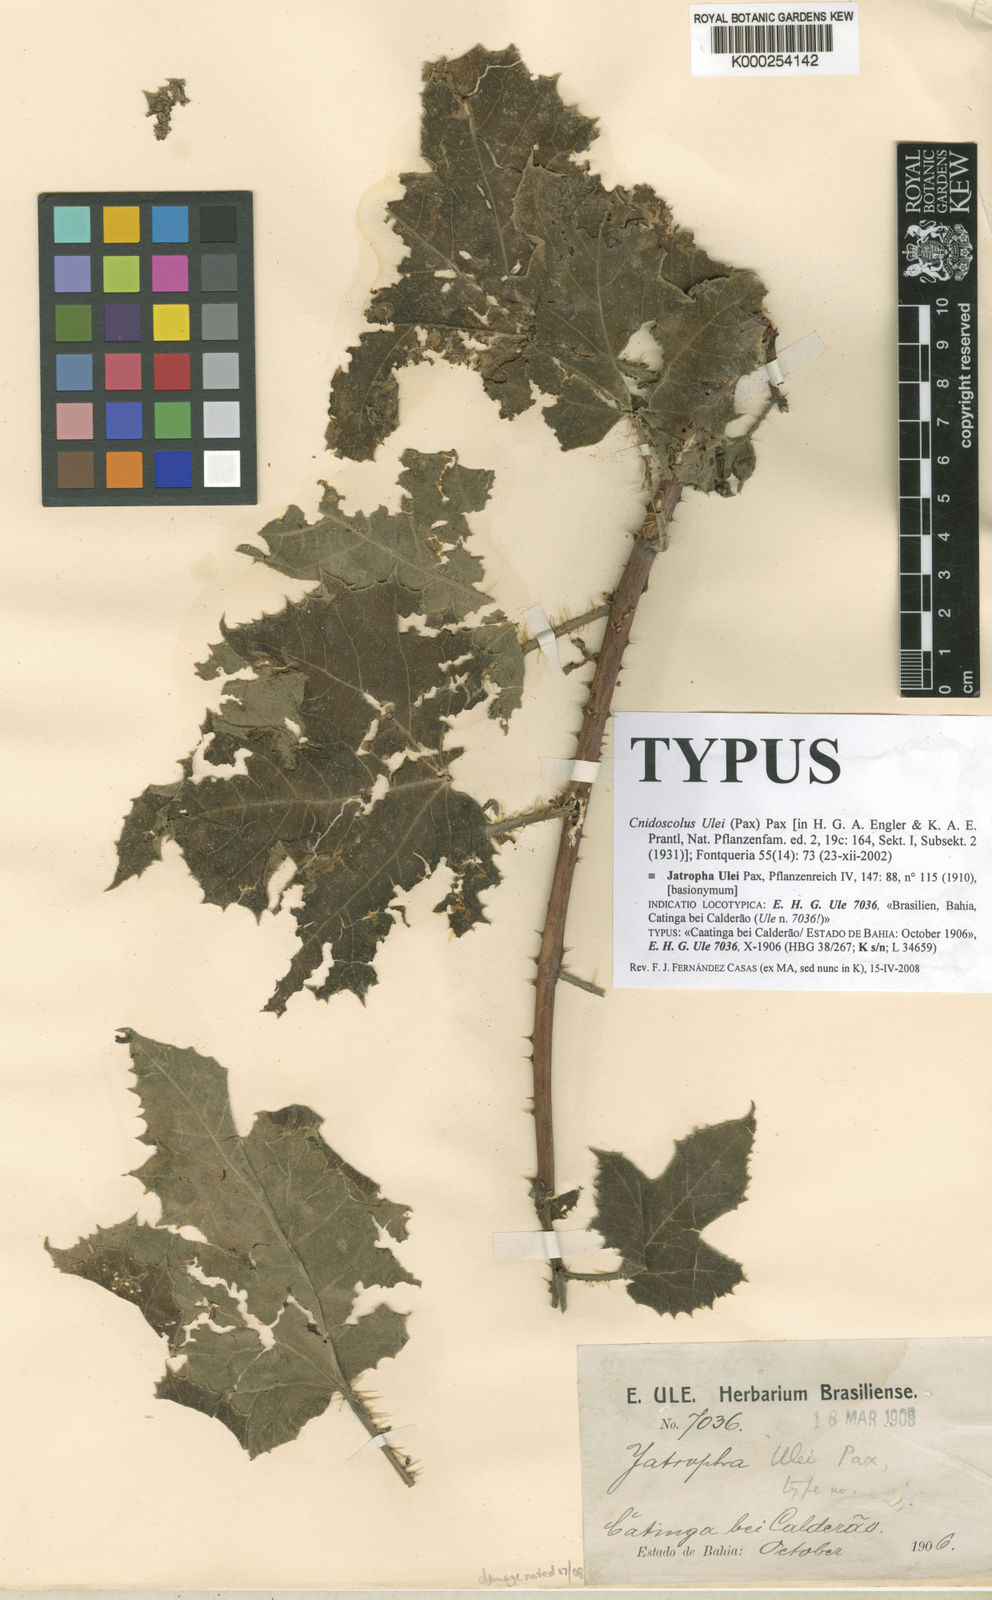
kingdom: Plantae
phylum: Tracheophyta
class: Magnoliopsida
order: Malpighiales
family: Euphorbiaceae
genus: Cnidoscolus
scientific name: Cnidoscolus ulei
